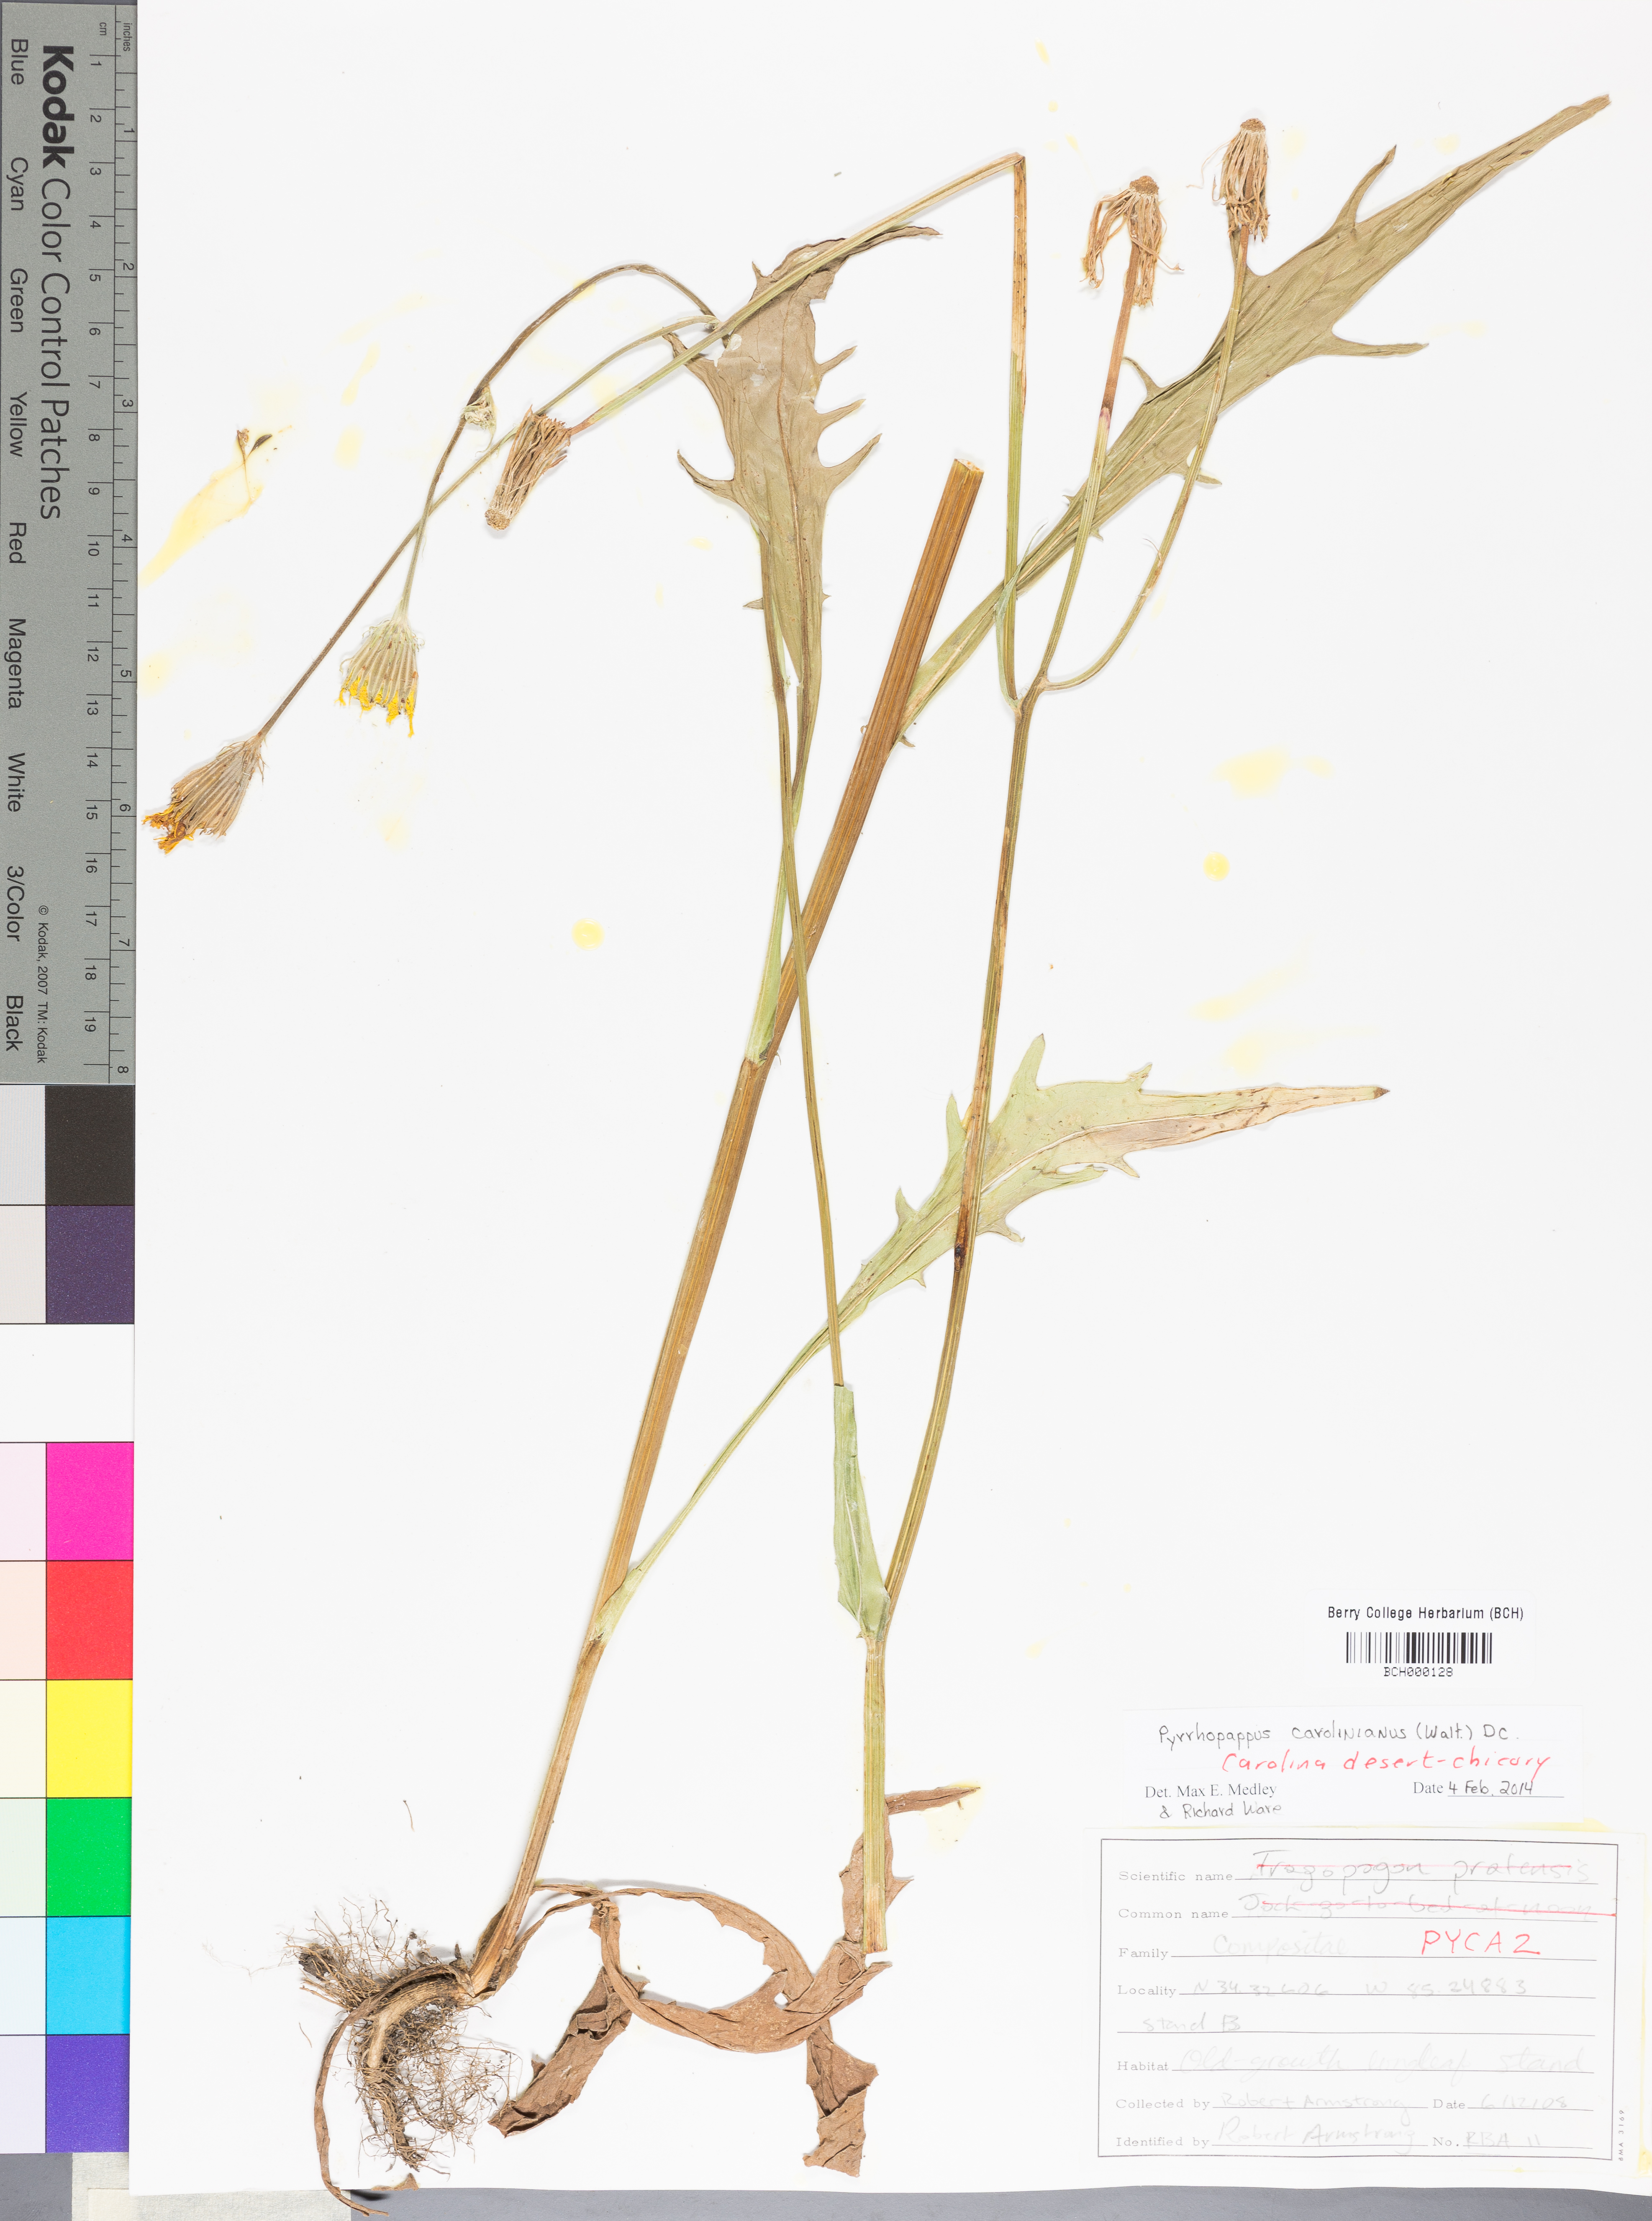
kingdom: Plantae
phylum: Tracheophyta
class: Magnoliopsida
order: Asterales
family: Asteraceae
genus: Pyrrhopappus
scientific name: Pyrrhopappus carolinianus
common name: Carolina desert-chicory
